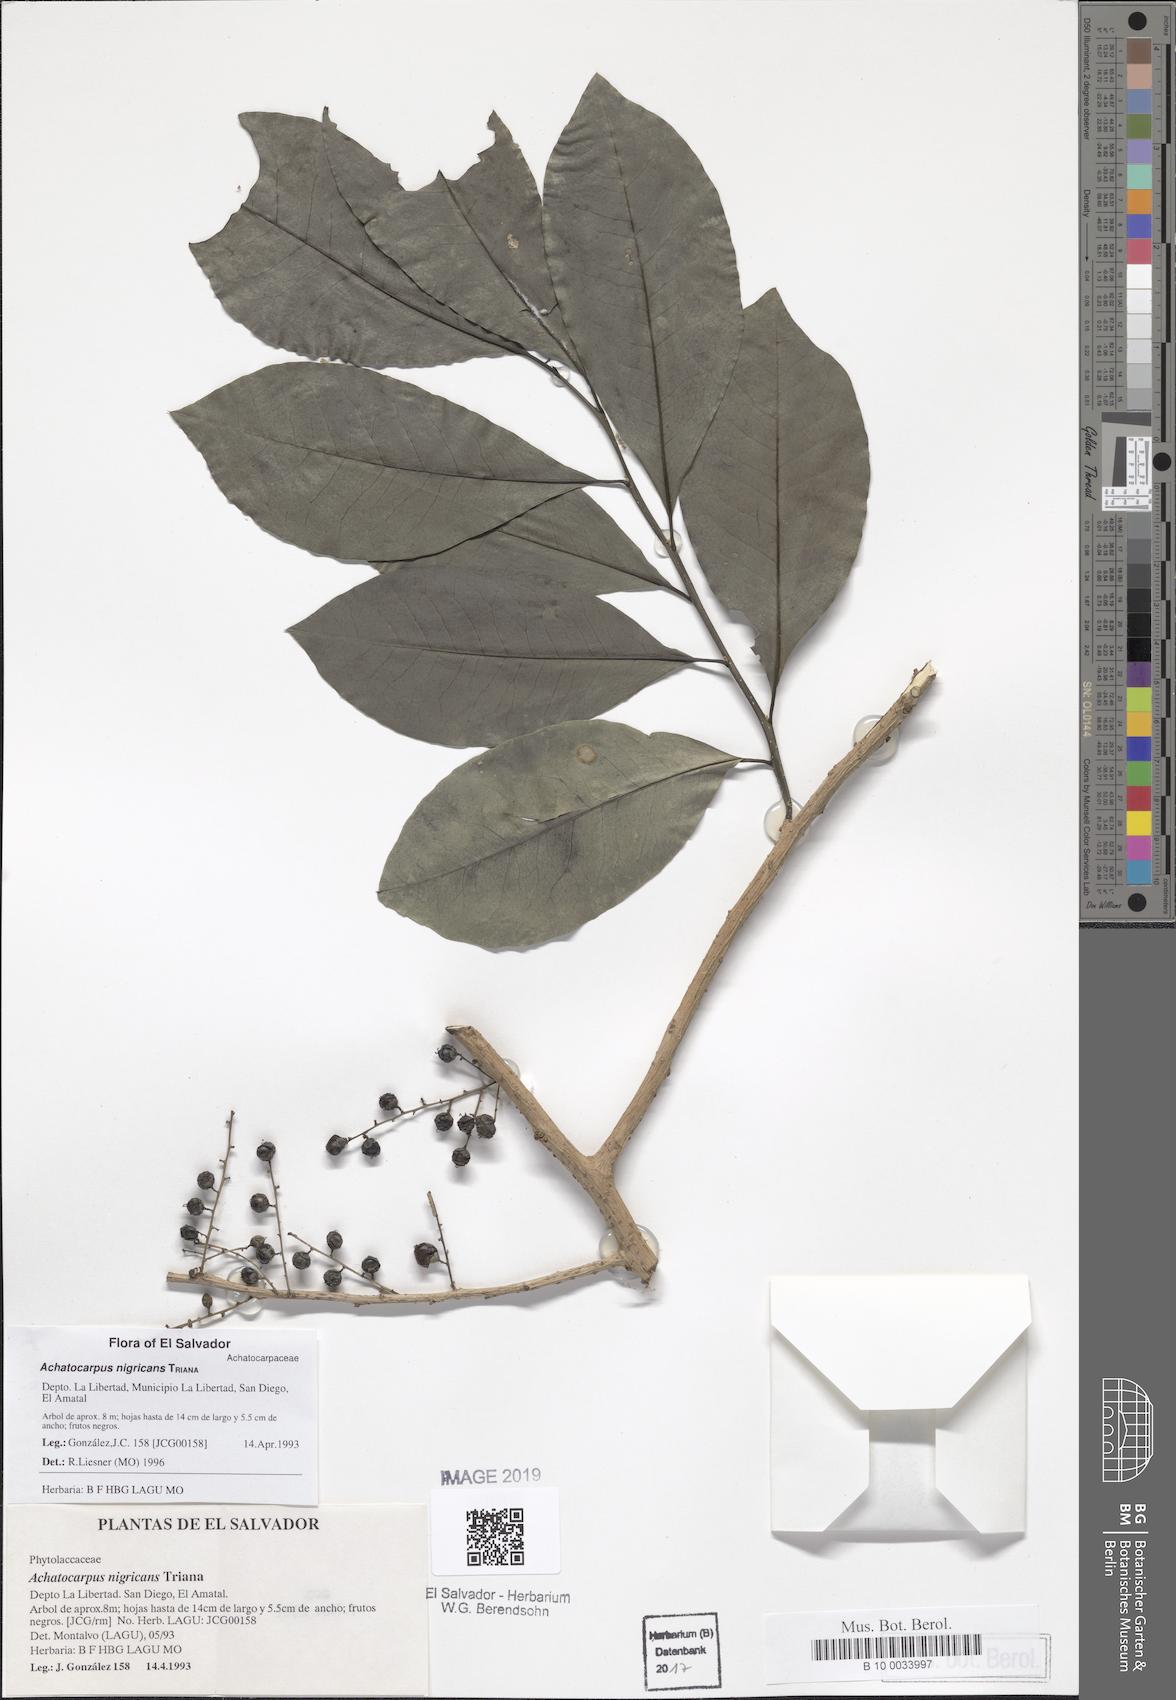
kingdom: Plantae
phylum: Tracheophyta
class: Magnoliopsida
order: Caryophyllales
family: Achatocarpaceae
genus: Achatocarpus
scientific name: Achatocarpus nigricans
